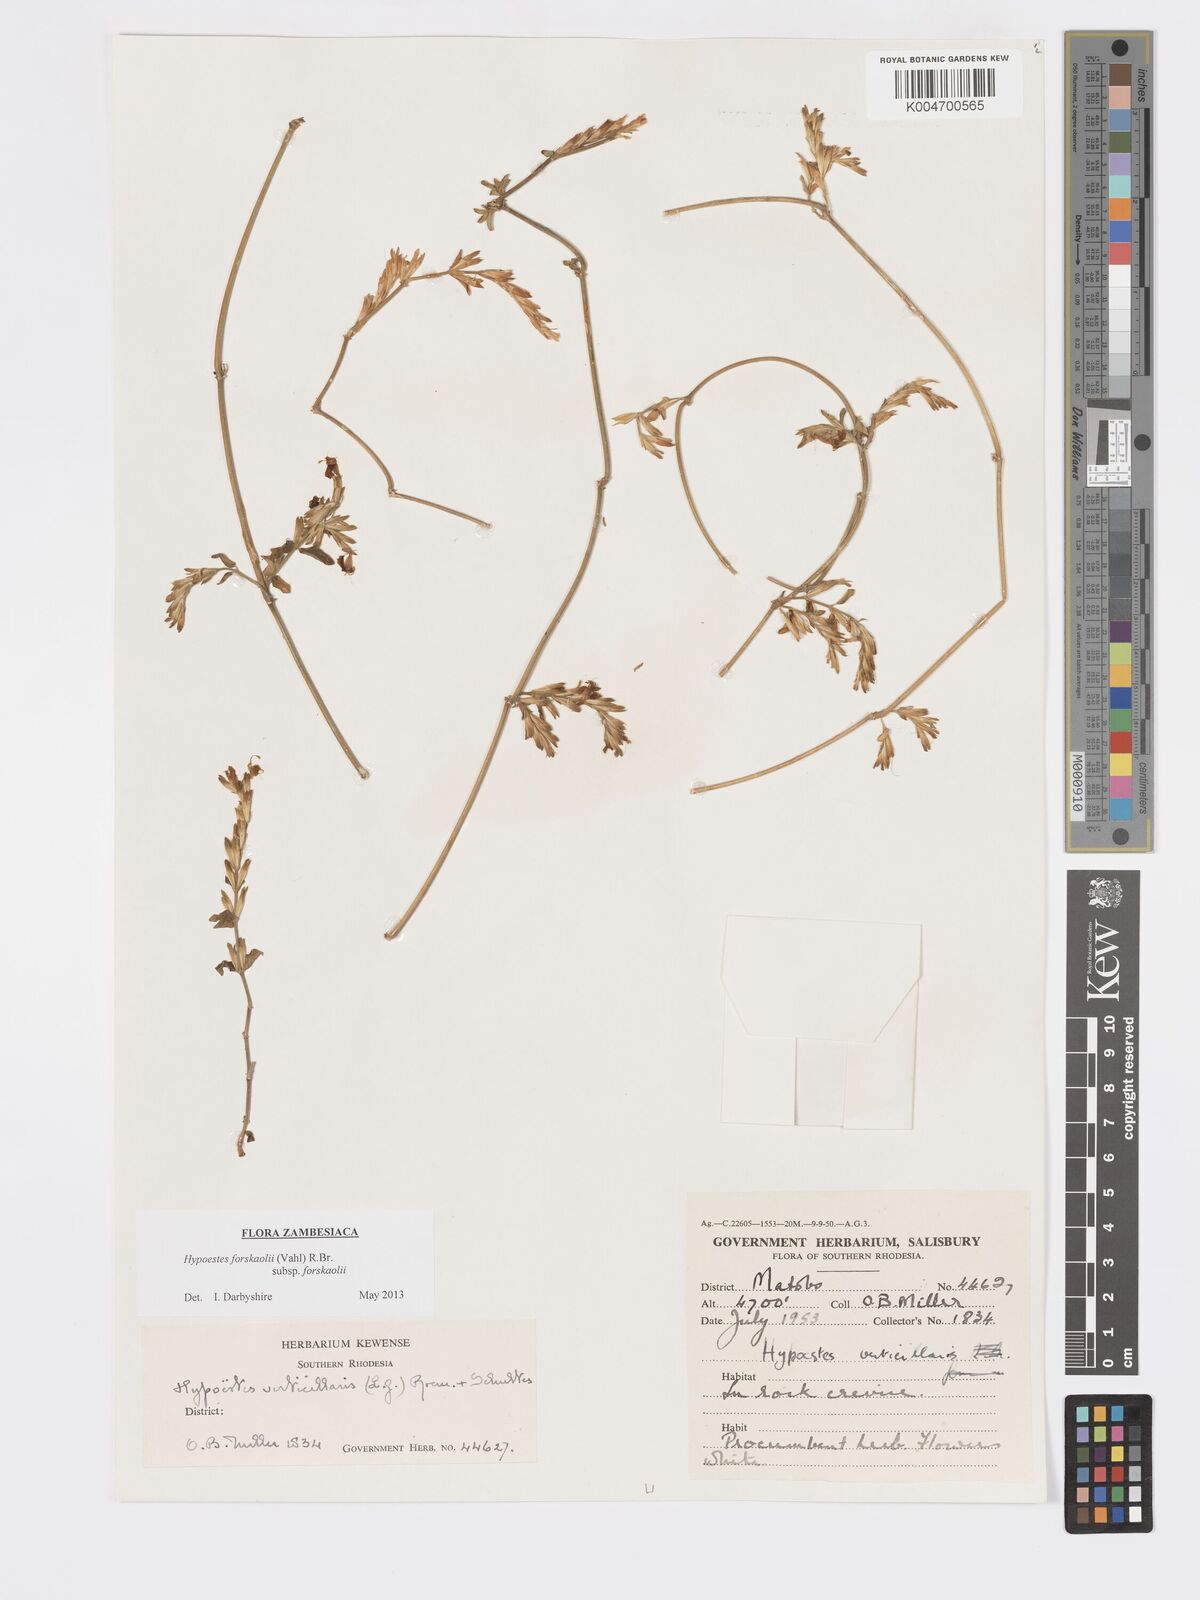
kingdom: Plantae
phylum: Tracheophyta
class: Magnoliopsida
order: Lamiales
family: Acanthaceae
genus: Hypoestes
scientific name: Hypoestes forskaolii
